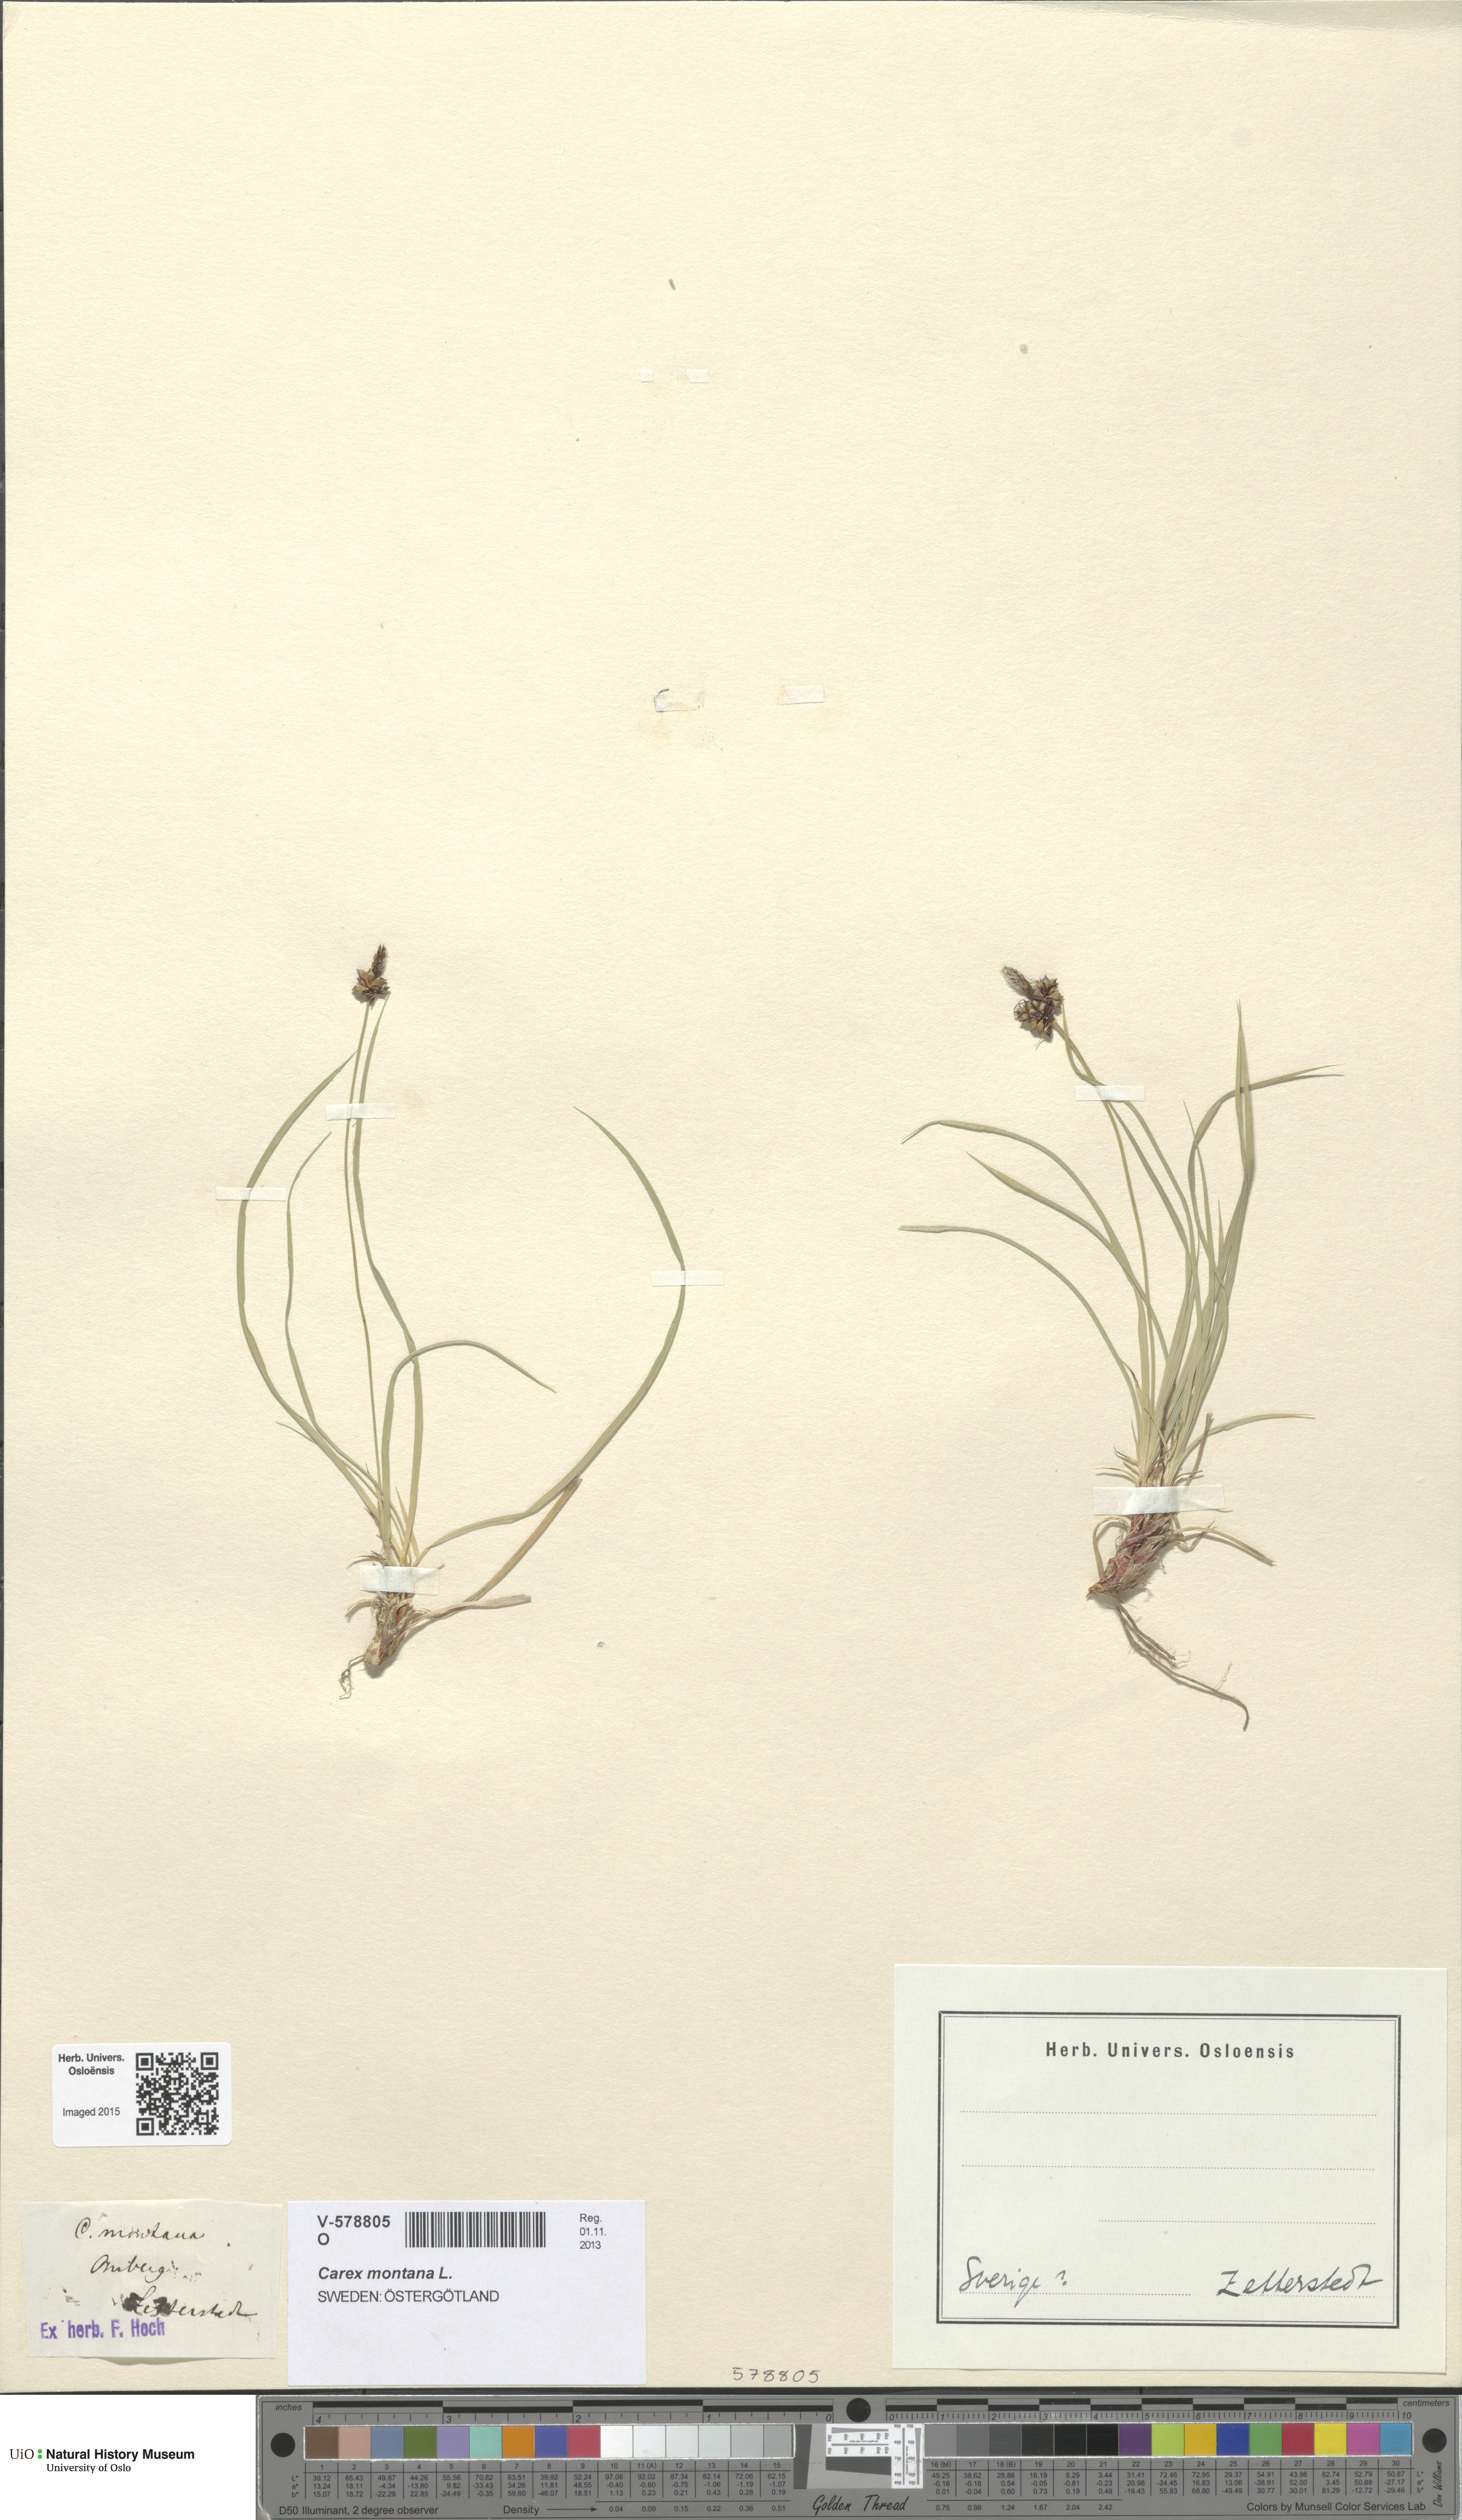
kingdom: Plantae
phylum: Tracheophyta
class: Liliopsida
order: Poales
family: Cyperaceae
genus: Carex
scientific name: Carex montana
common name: Soft-leaved sedge
